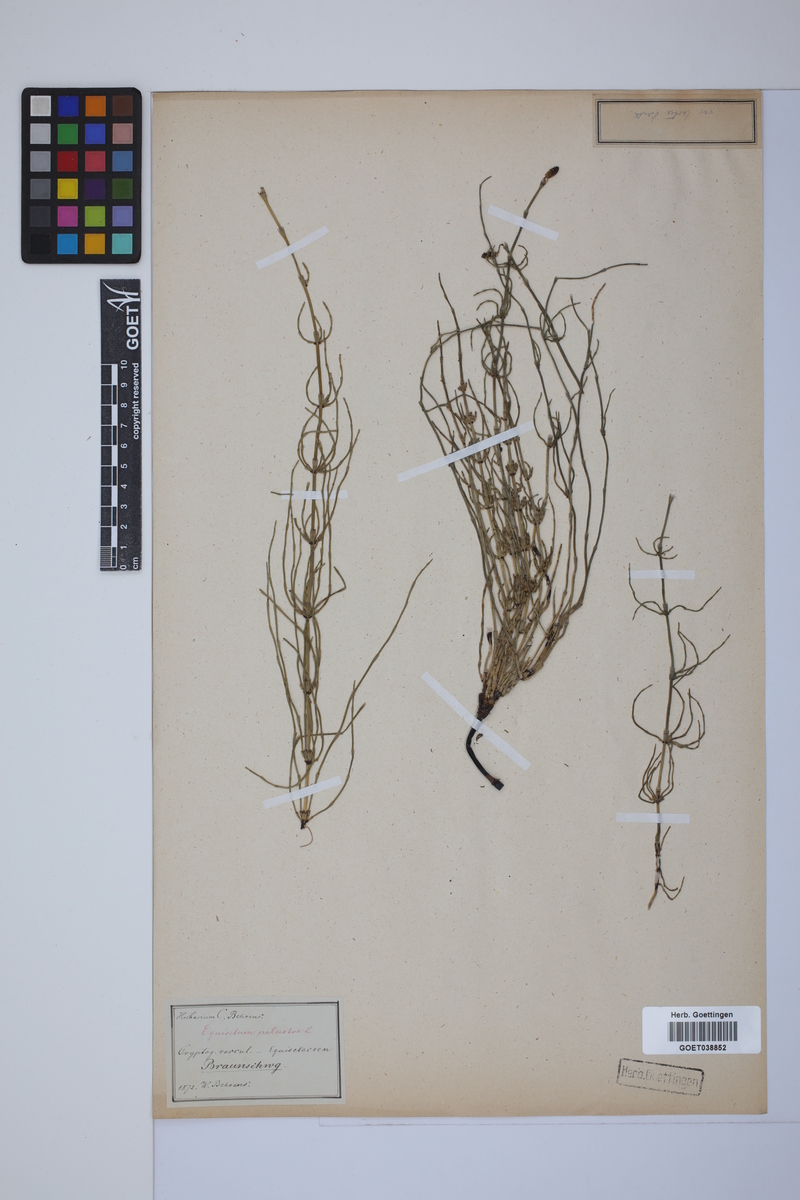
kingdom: Plantae
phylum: Tracheophyta
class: Polypodiopsida
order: Equisetales
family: Equisetaceae
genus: Equisetum
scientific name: Equisetum palustre
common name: Marsh horsetail
